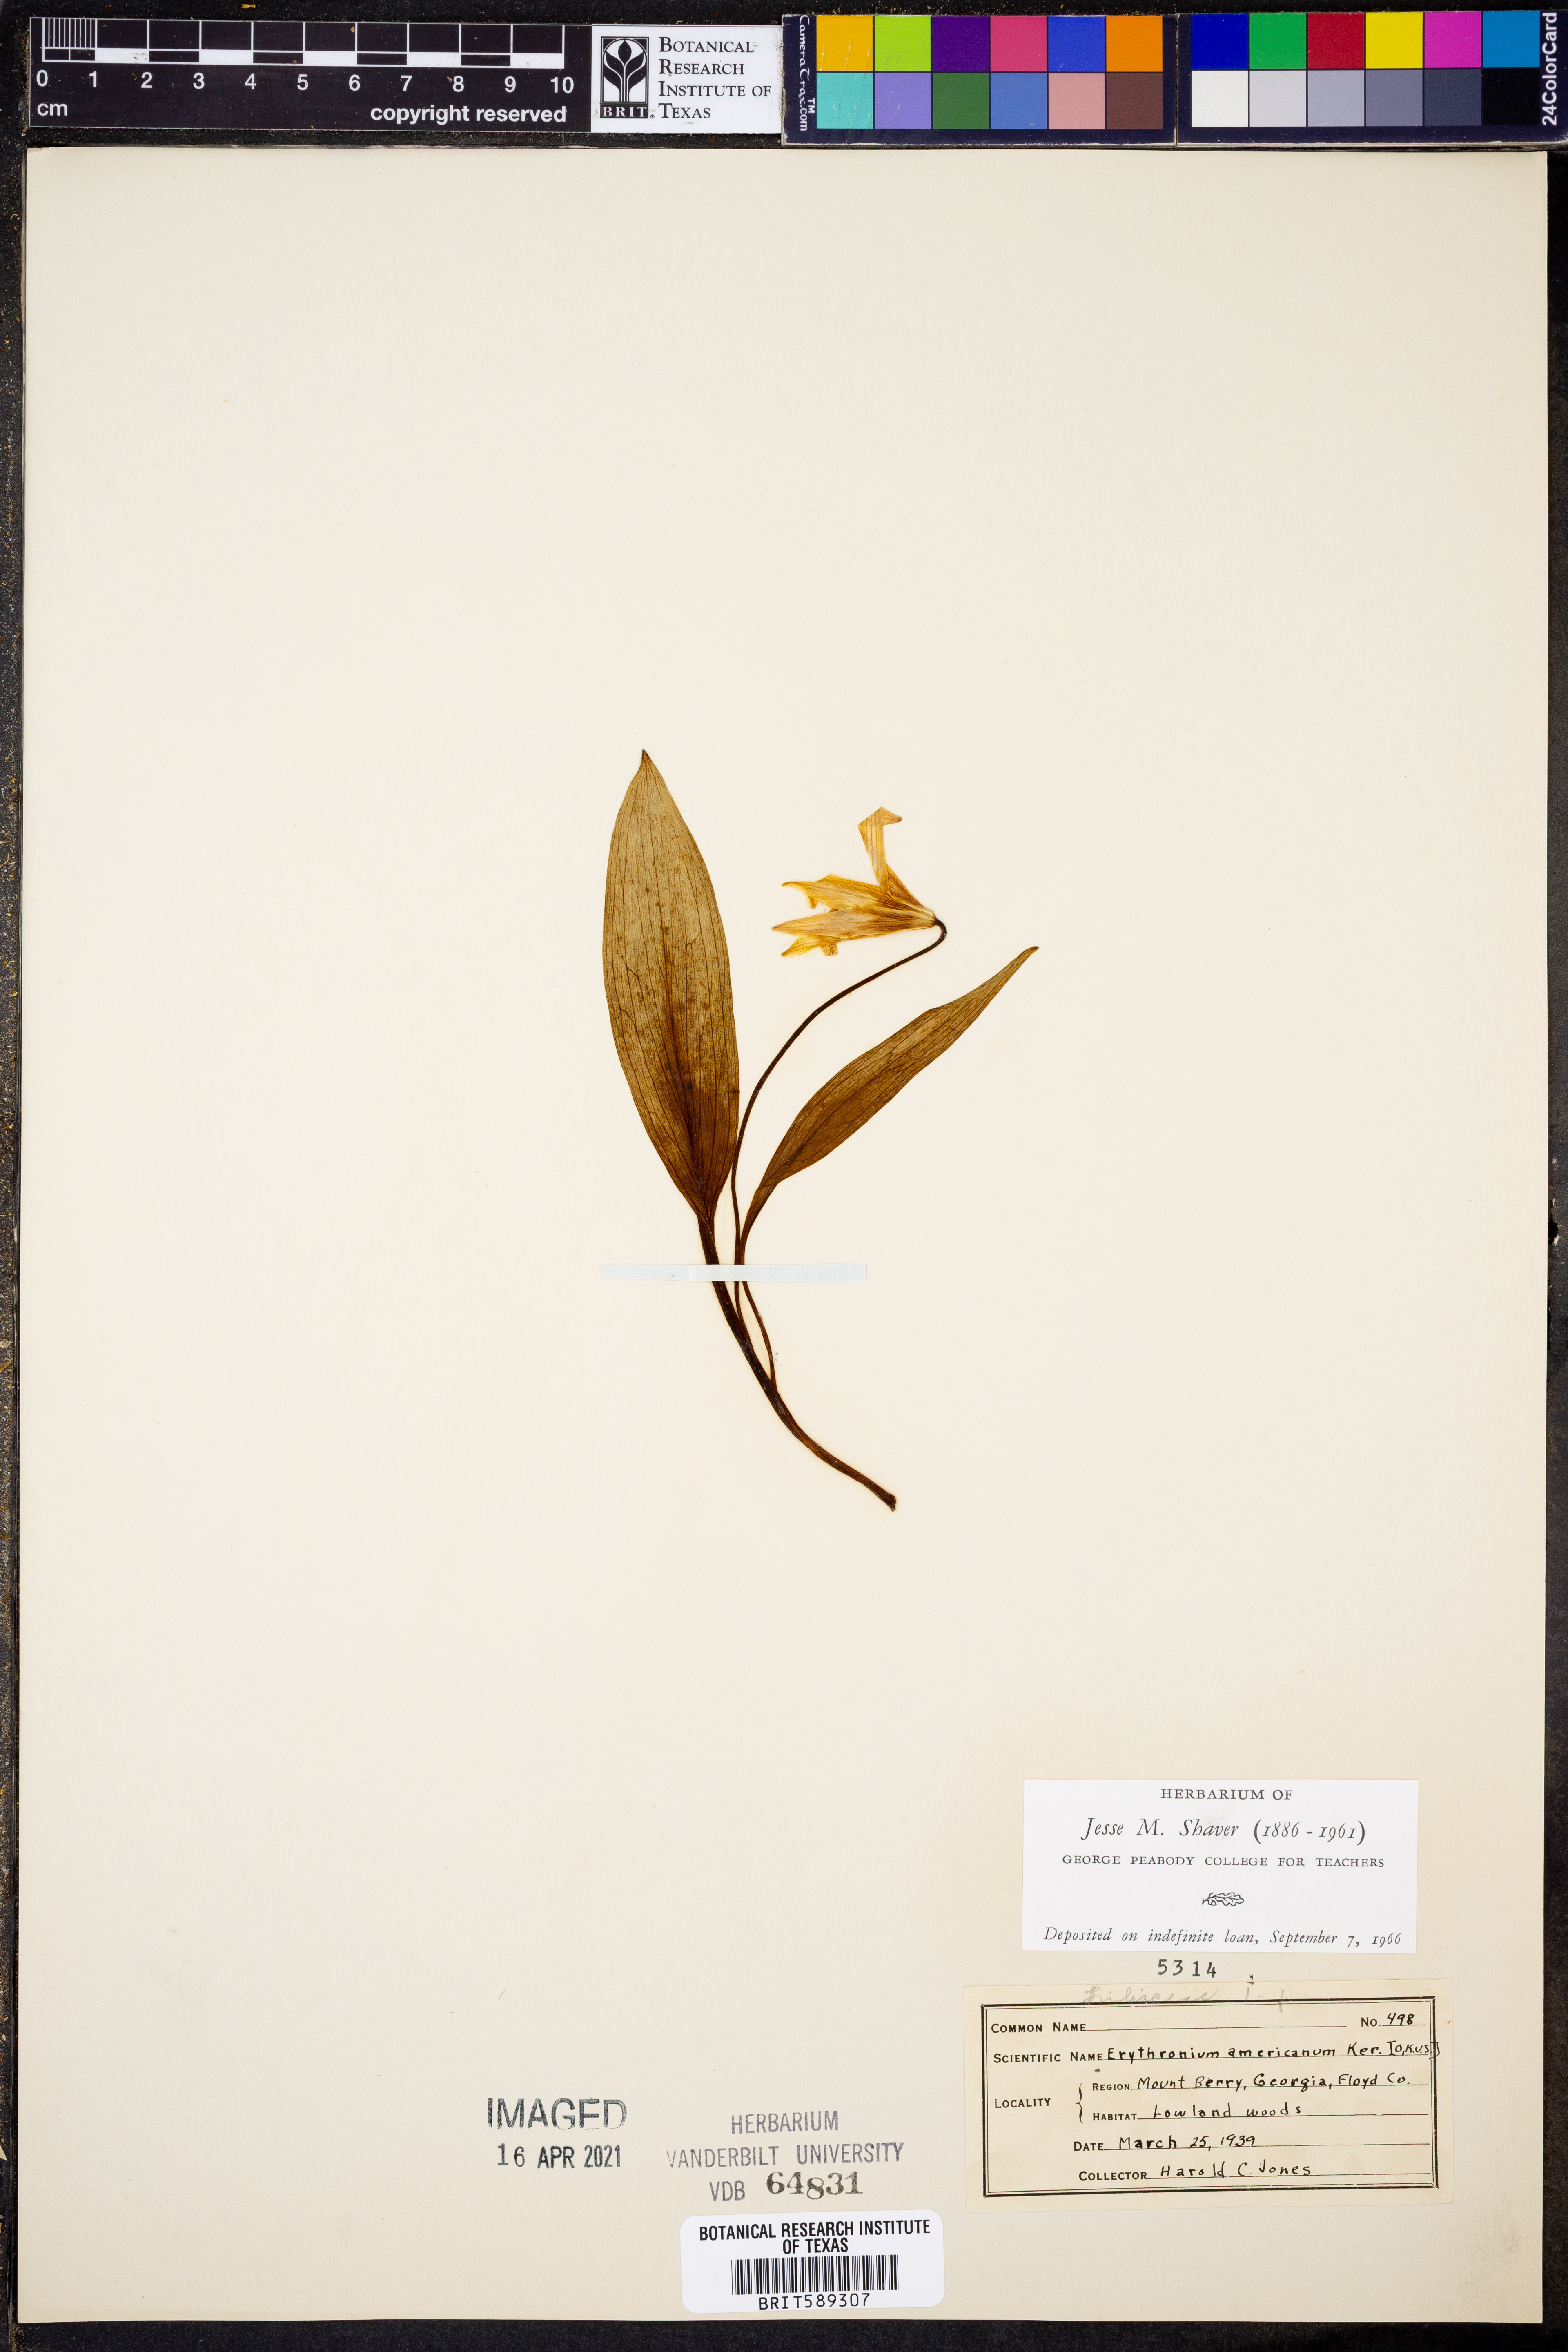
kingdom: Plantae
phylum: Tracheophyta
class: Liliopsida
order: Liliales
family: Liliaceae
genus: Erythronium
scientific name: Erythronium americanum
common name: Yellow adder's-tongue
